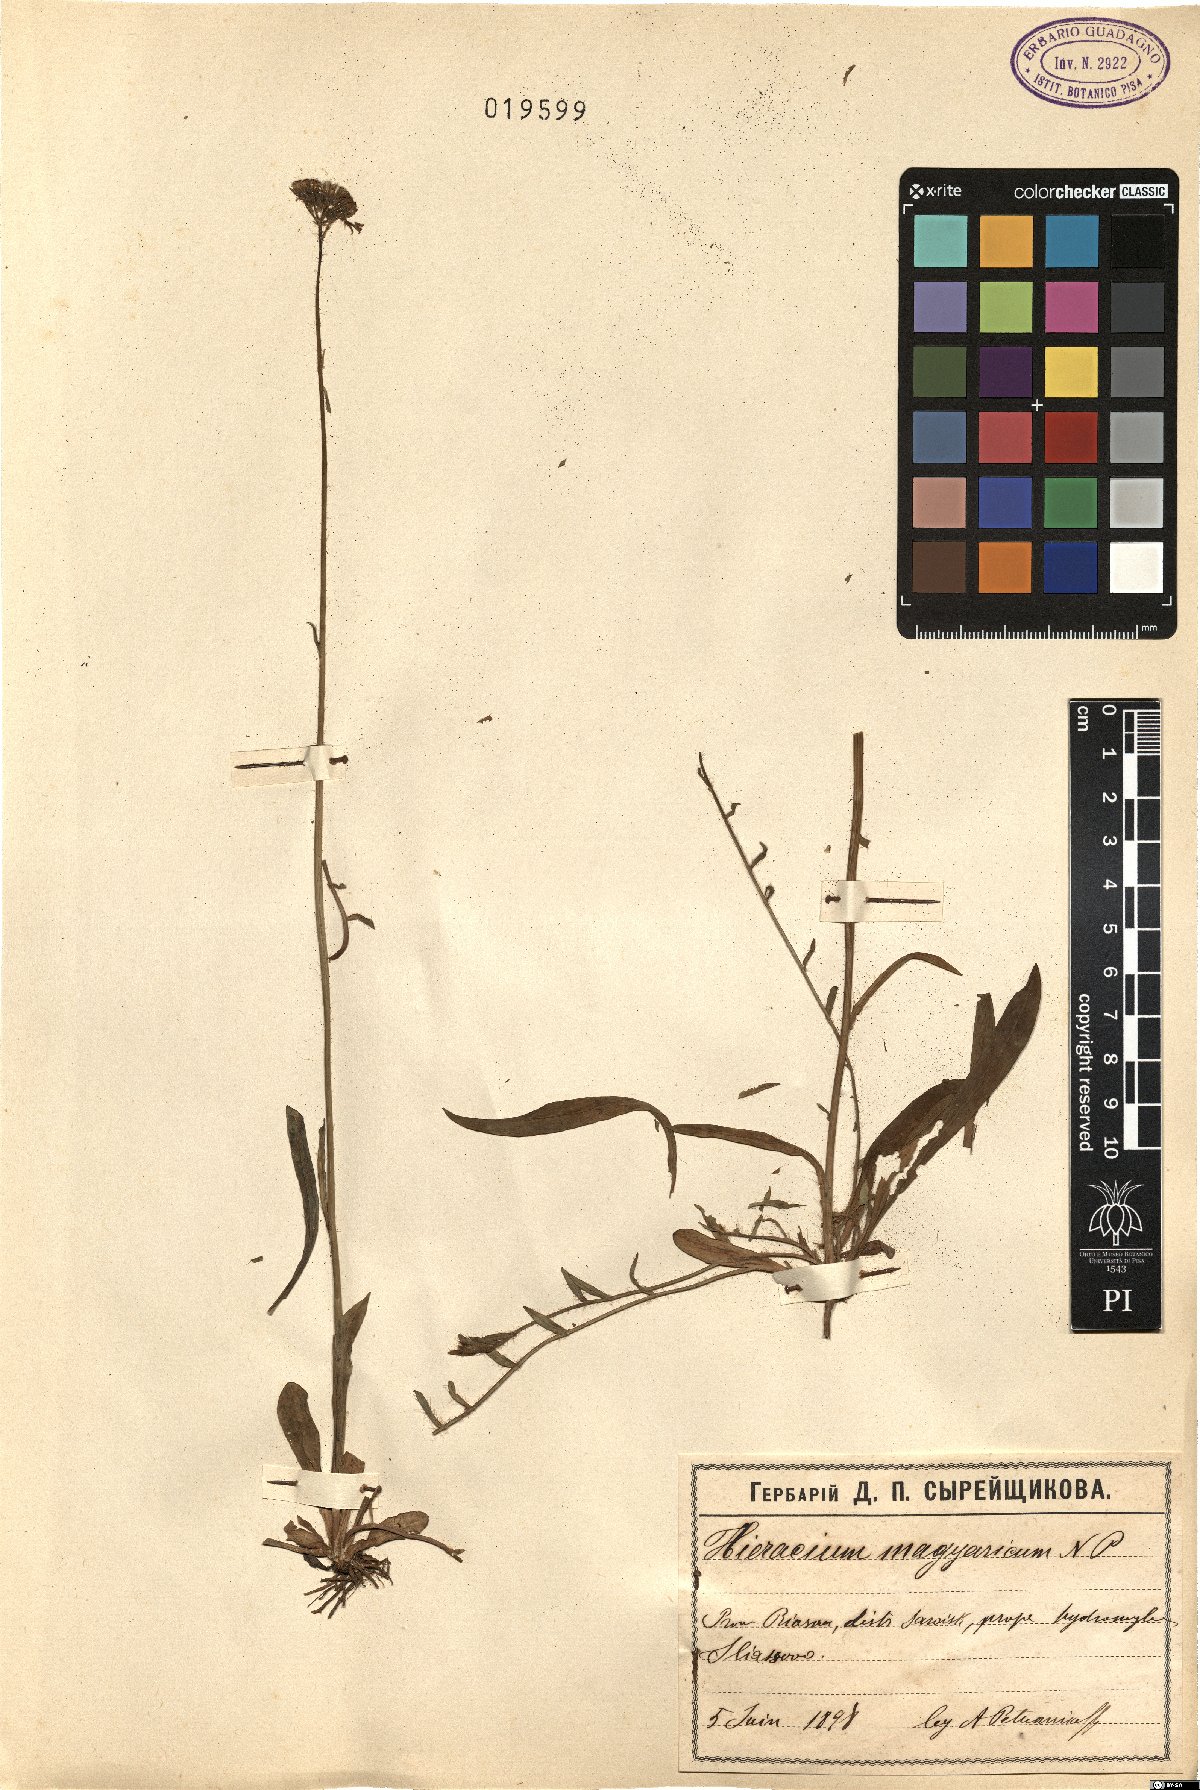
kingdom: Plantae
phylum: Tracheophyta
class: Magnoliopsida
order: Asterales
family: Asteraceae
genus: Pilosella
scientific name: Pilosella bauhini
